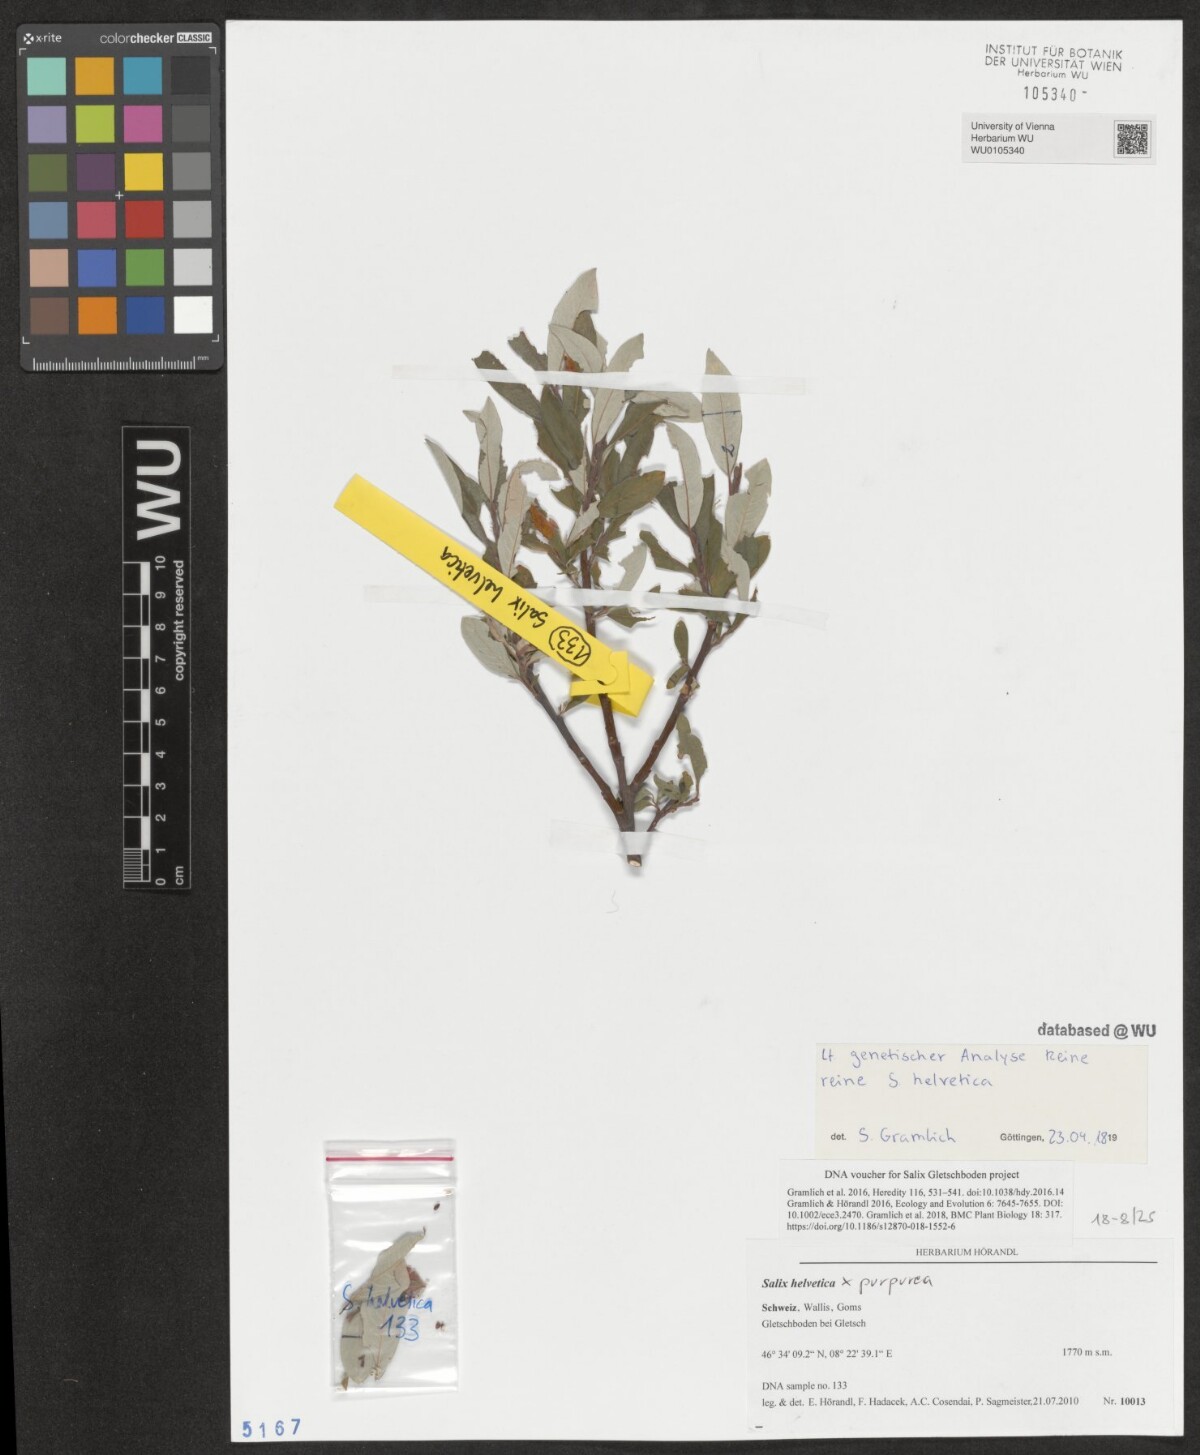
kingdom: Plantae
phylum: Tracheophyta
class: Magnoliopsida
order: Malpighiales
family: Salicaceae
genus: Salix
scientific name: Salix
